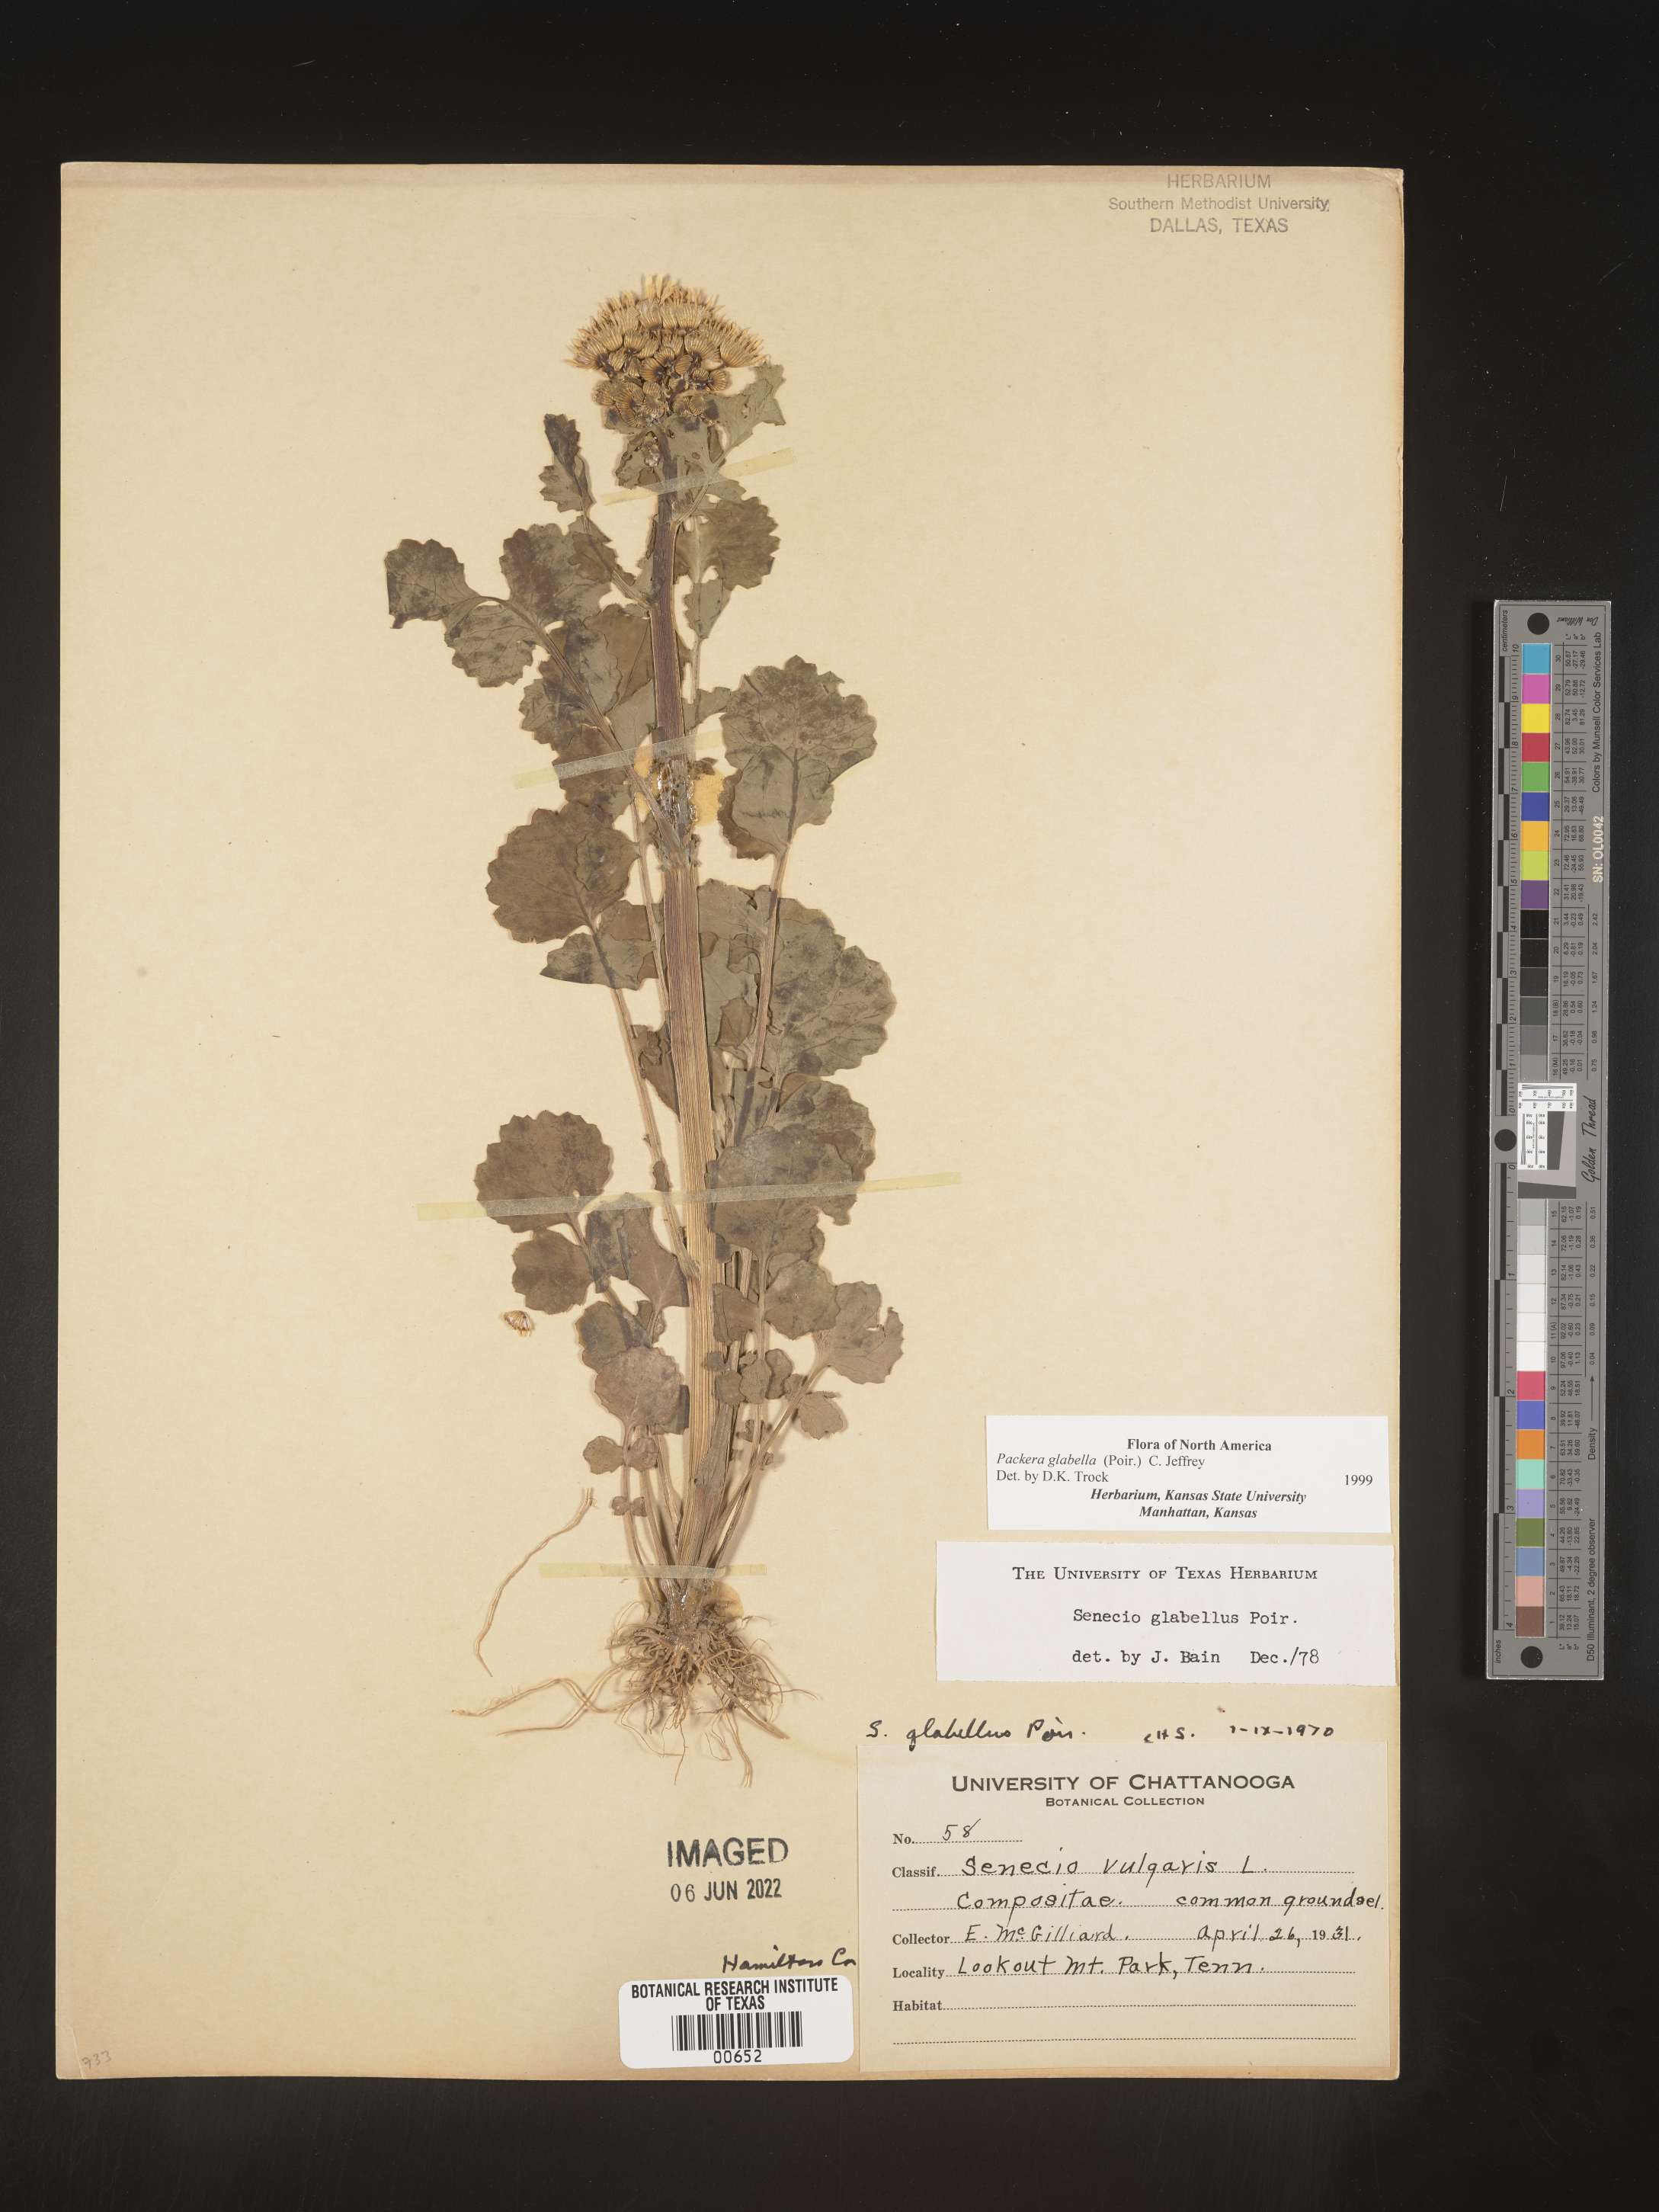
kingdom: Plantae
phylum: Tracheophyta
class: Magnoliopsida
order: Asterales
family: Asteraceae
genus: Packera
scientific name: Packera glabella
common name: Butterweed
